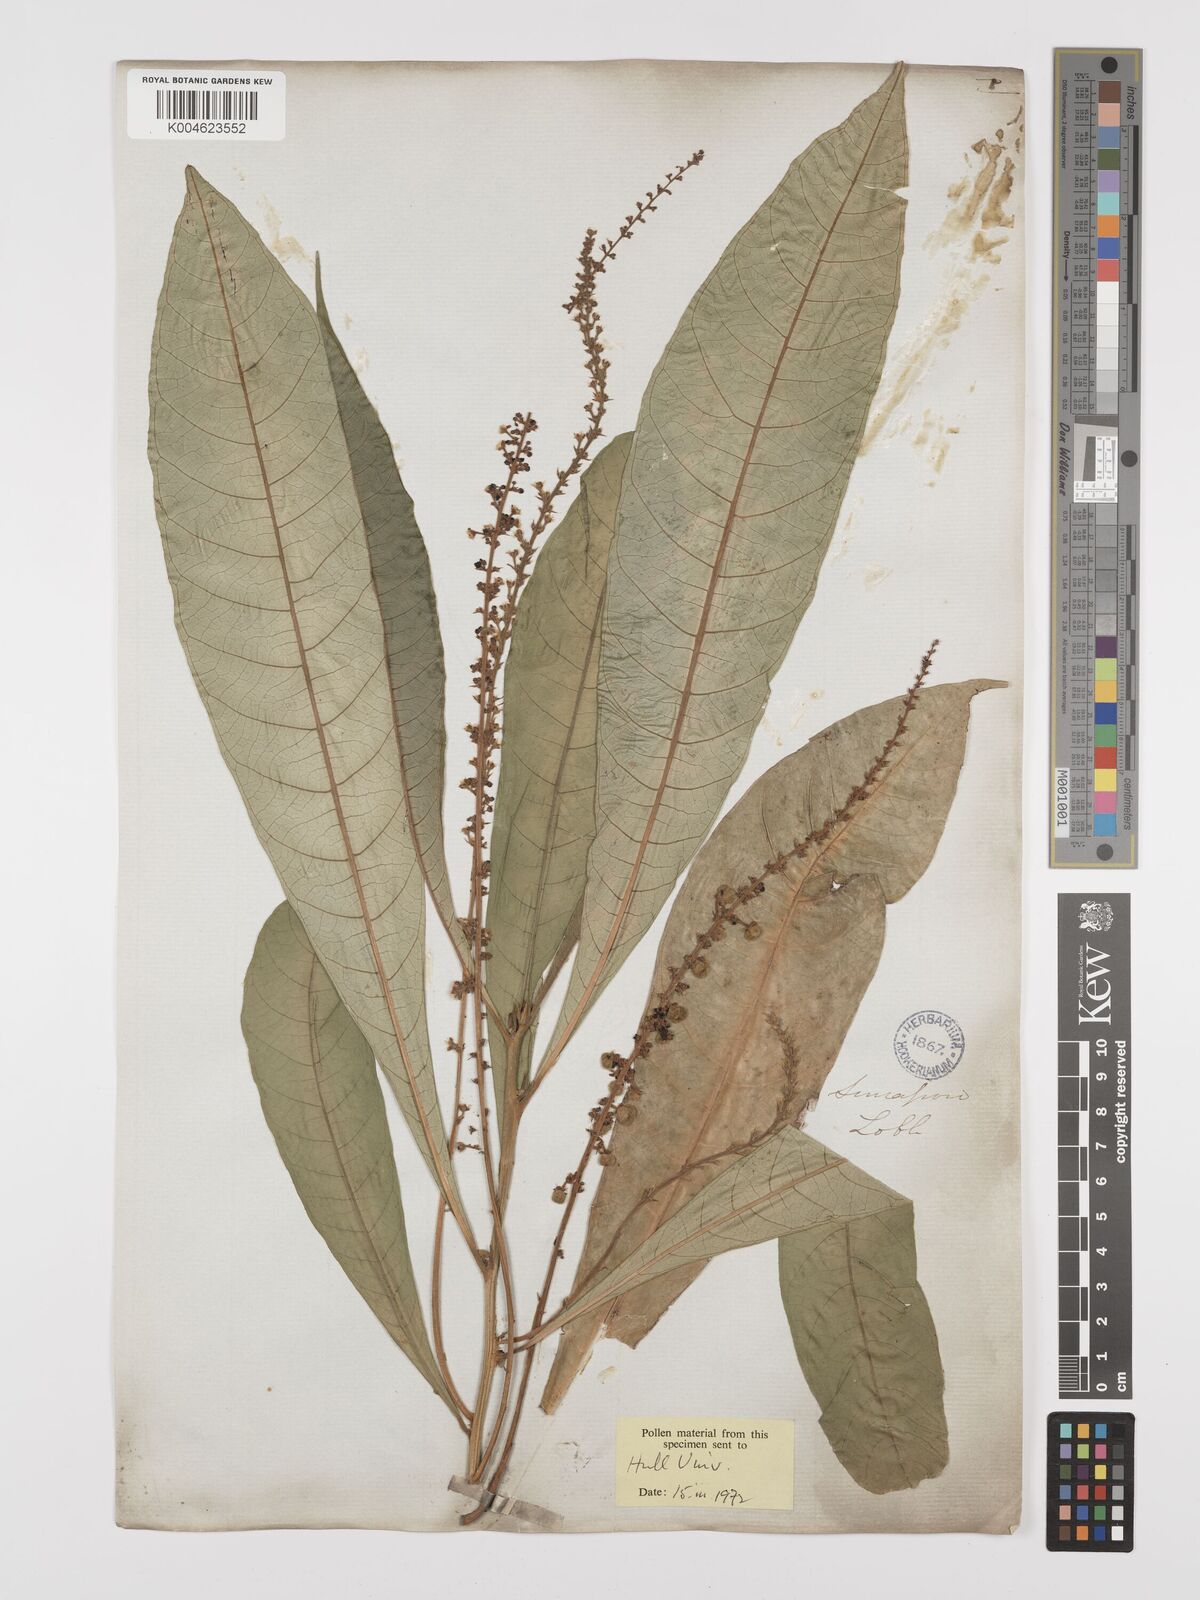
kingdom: Plantae
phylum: Tracheophyta
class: Magnoliopsida
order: Malpighiales
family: Euphorbiaceae
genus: Trigonostemon
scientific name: Trigonostemon longifolius
